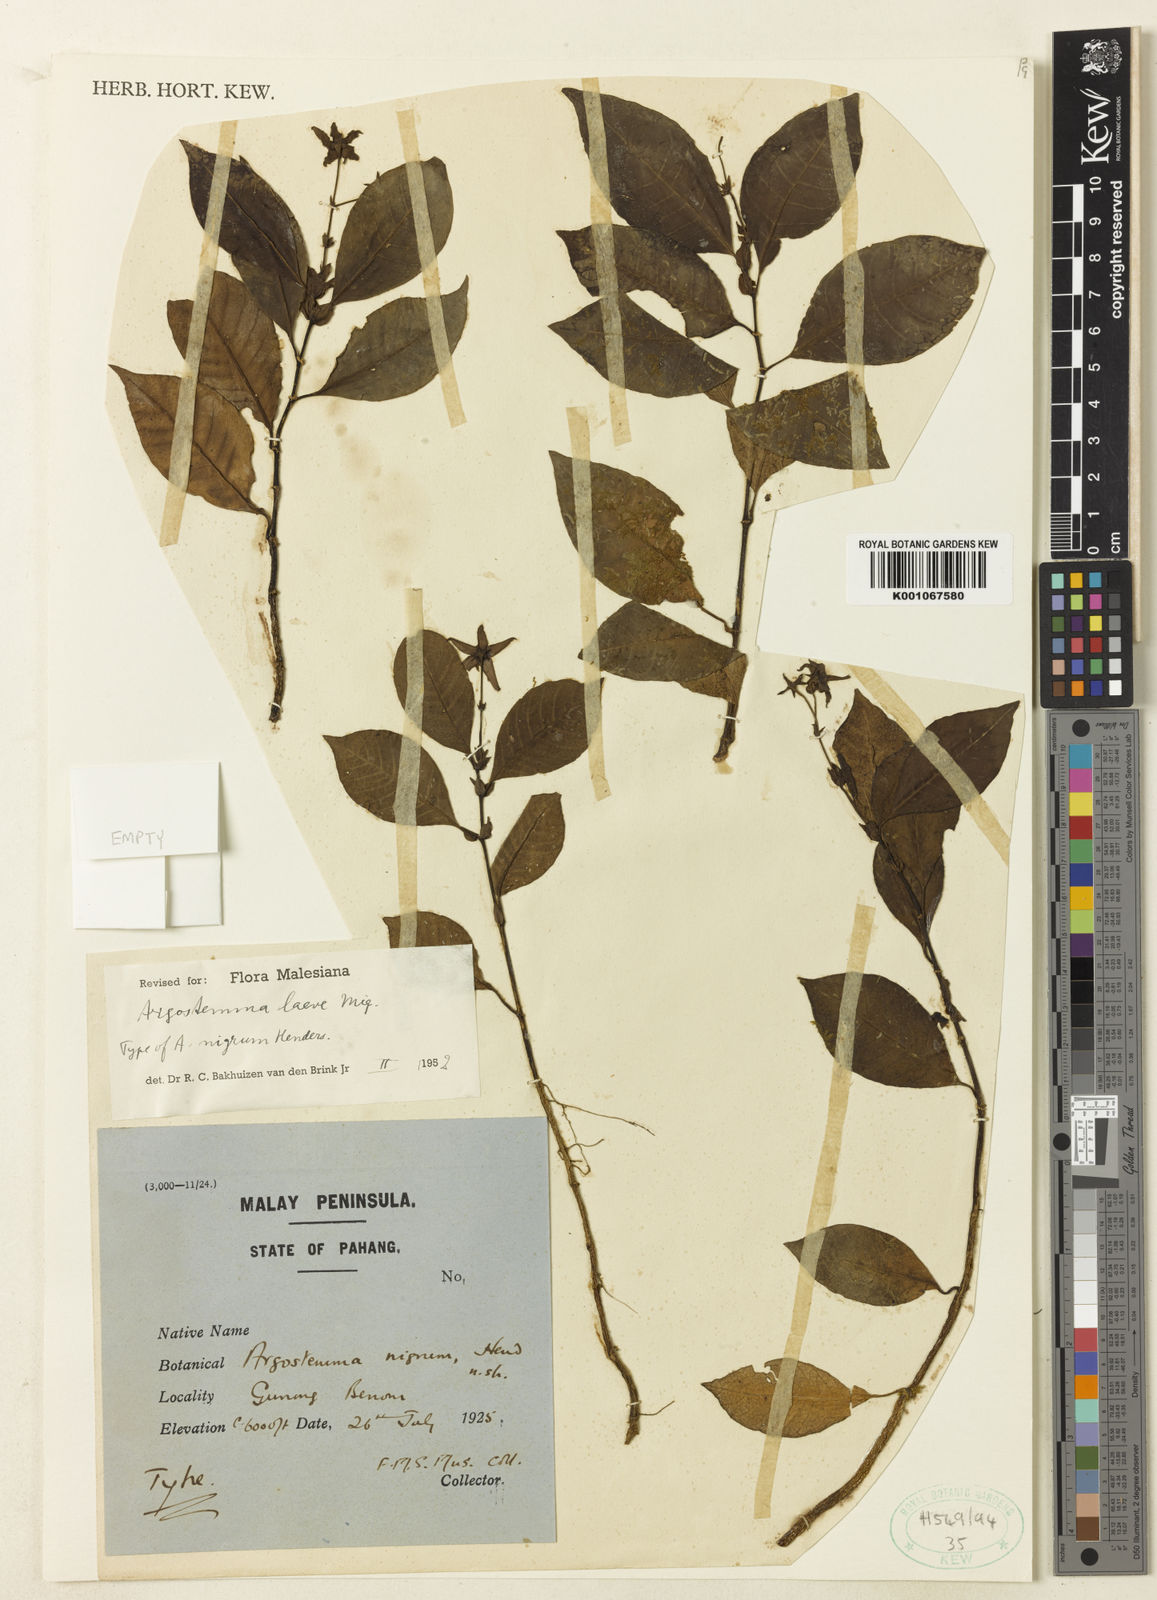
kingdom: Plantae
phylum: Tracheophyta
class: Magnoliopsida
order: Gentianales
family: Rubiaceae
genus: Argostemma
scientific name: Argostemma
